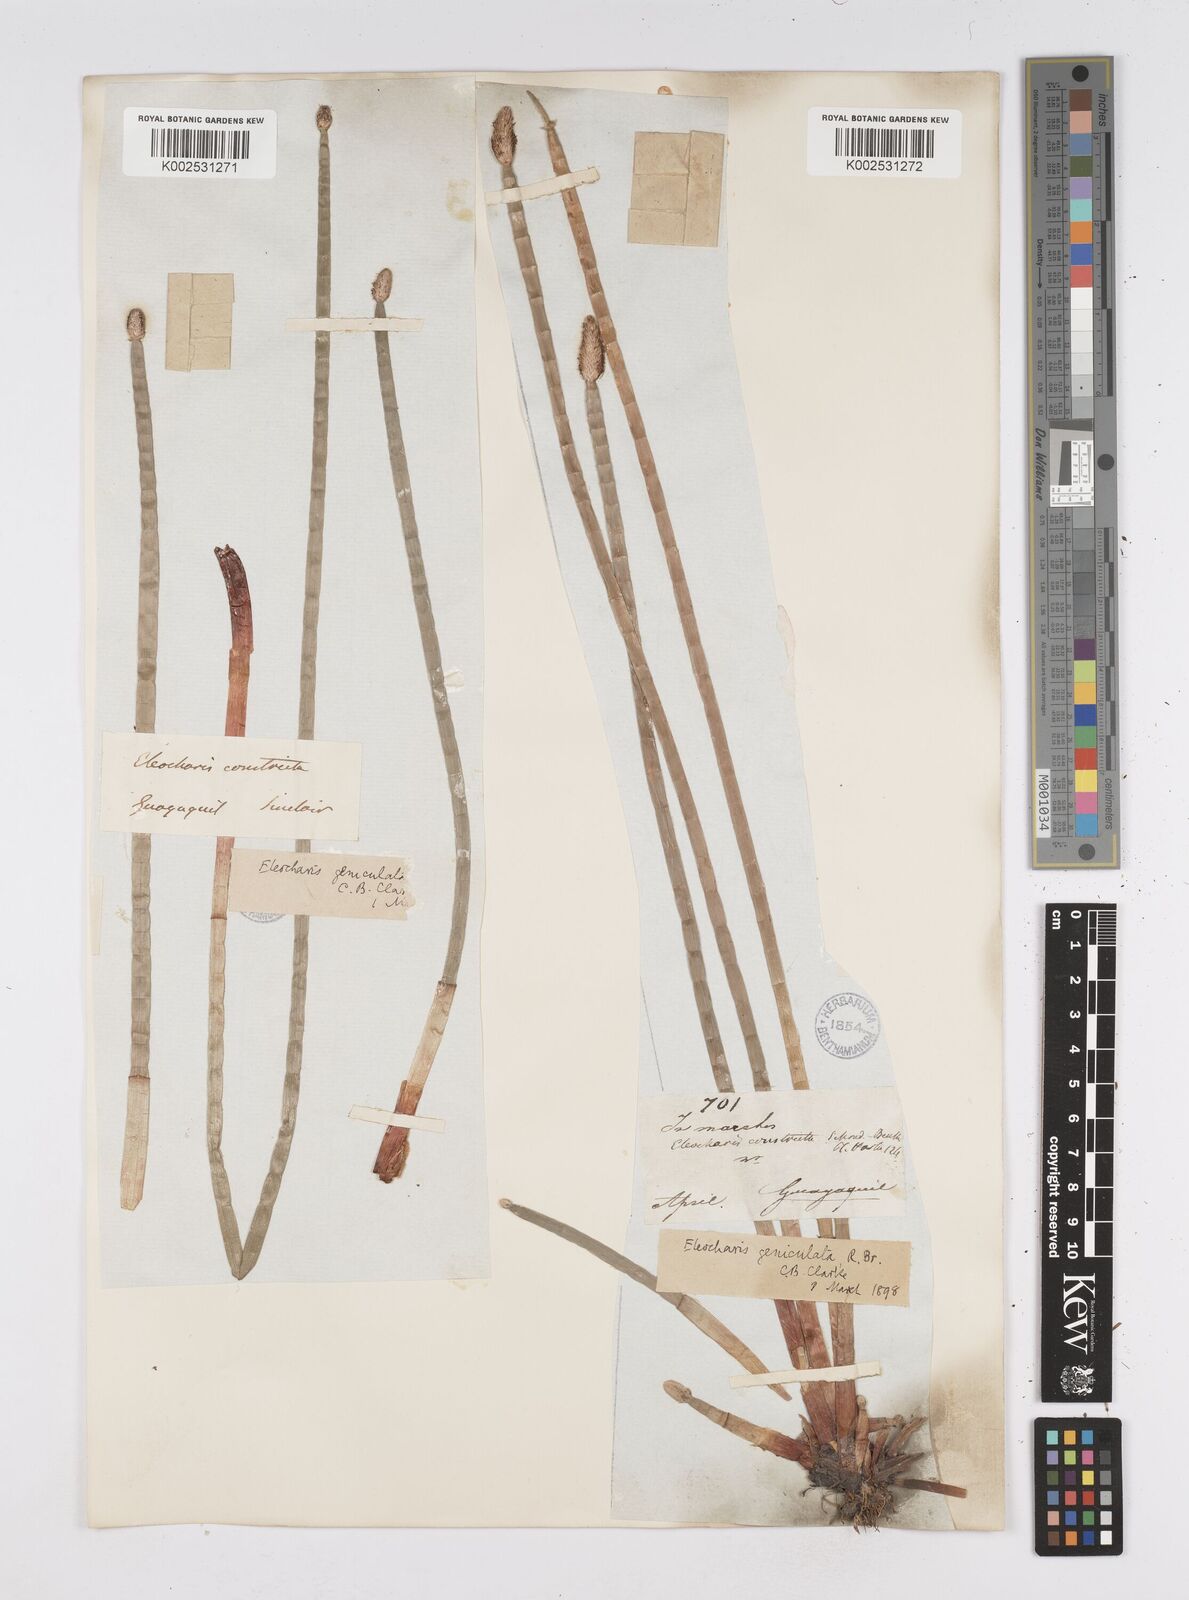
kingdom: Plantae
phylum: Tracheophyta
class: Liliopsida
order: Poales
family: Cyperaceae
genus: Eleocharis
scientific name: Eleocharis elegans
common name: Elegant spike-rush
